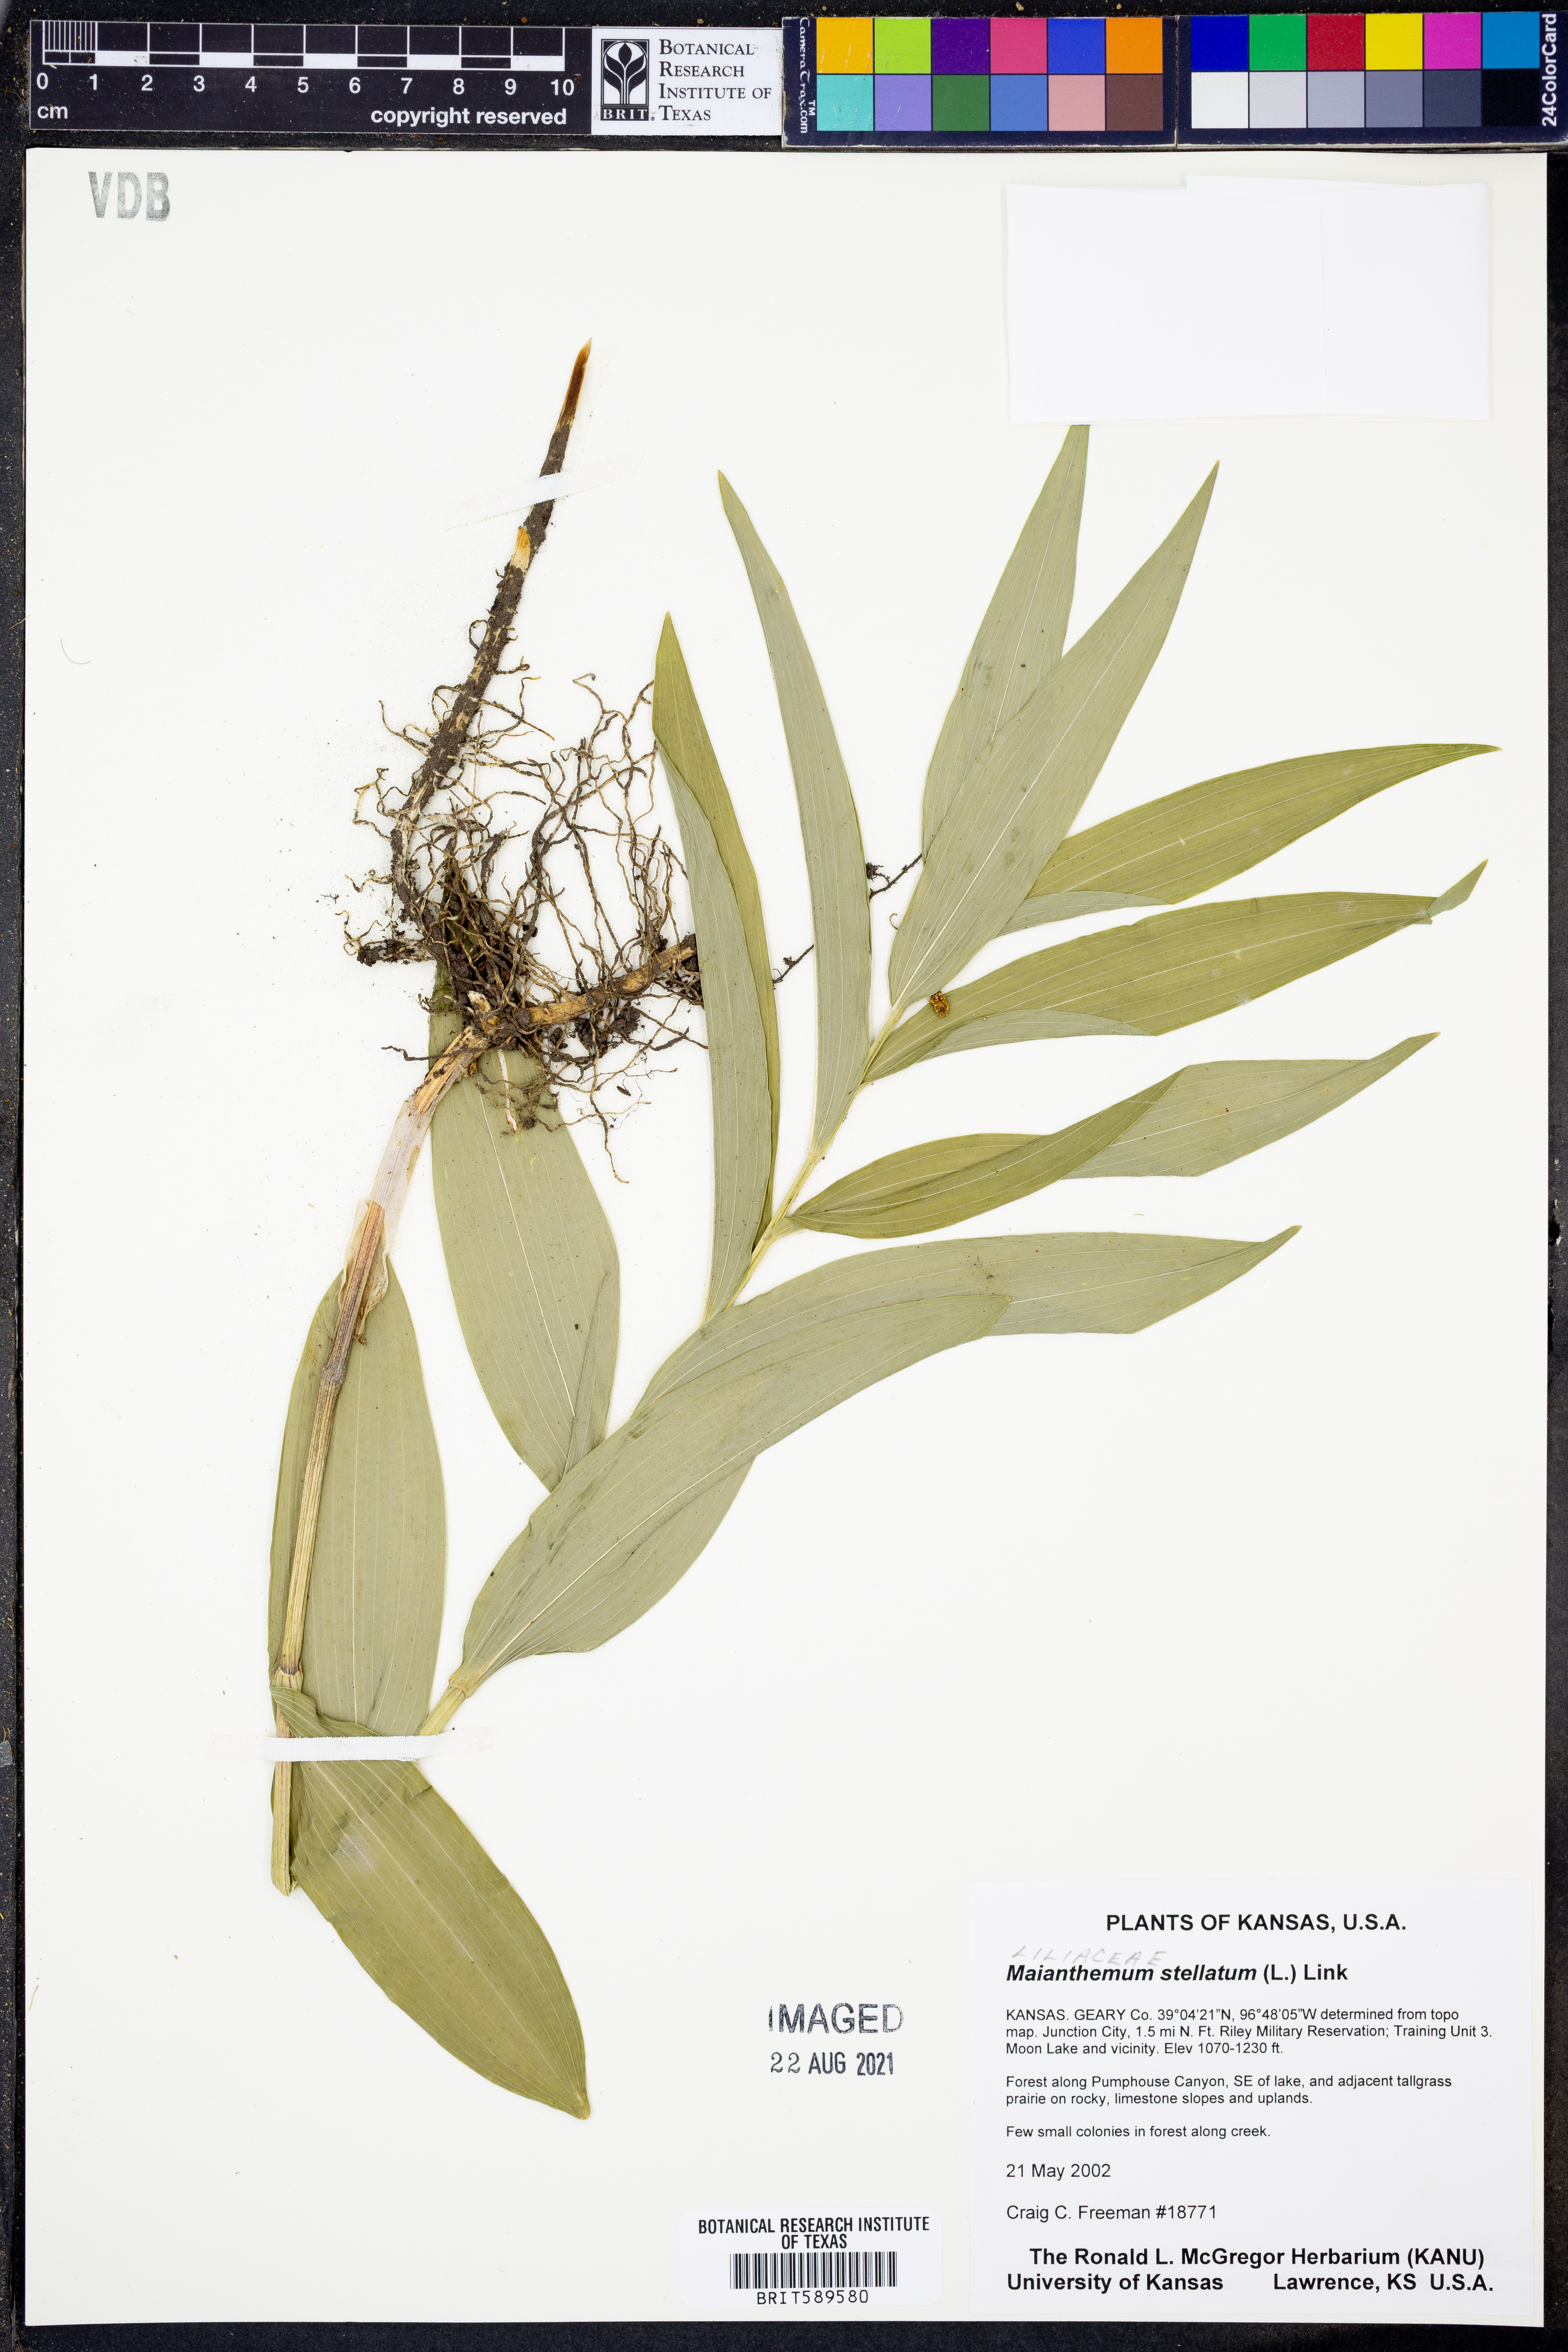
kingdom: Plantae
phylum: Tracheophyta
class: Liliopsida
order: Asparagales
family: Asparagaceae
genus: Maianthemum
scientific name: Maianthemum stellatum
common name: Little false solomon's seal
